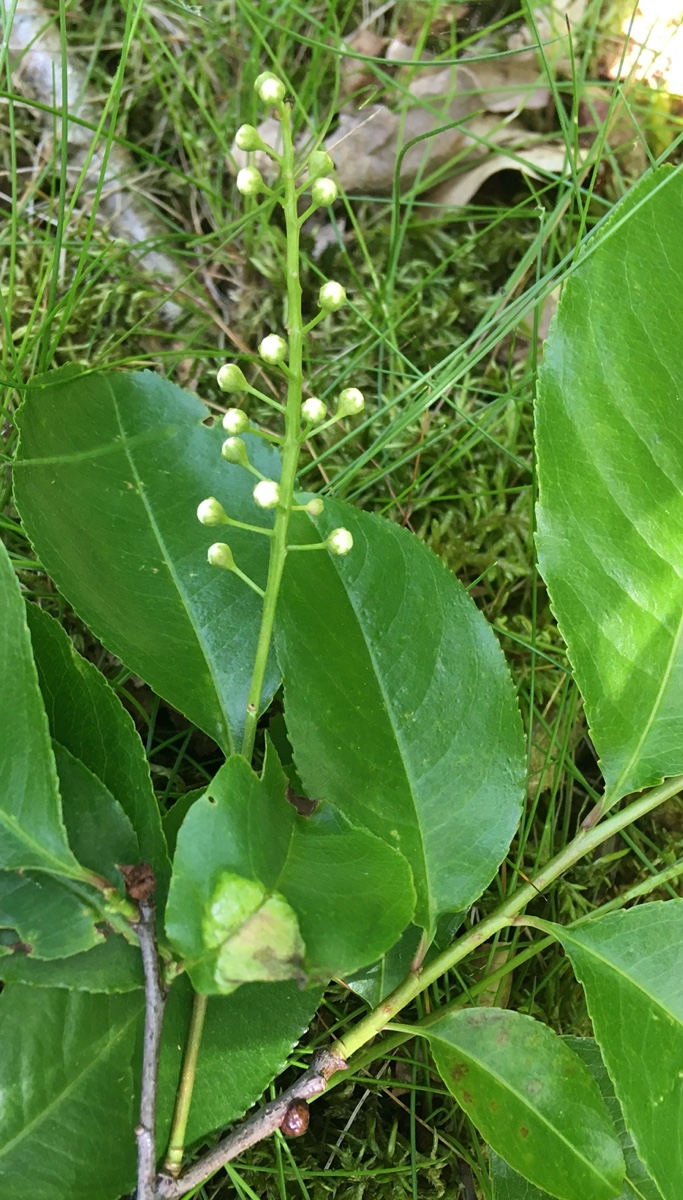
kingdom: Fungi
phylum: Ascomycota
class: Taphrinomycetes
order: Taphrinales
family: Taphrinaceae
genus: Taphrina
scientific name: Taphrina farlowii
